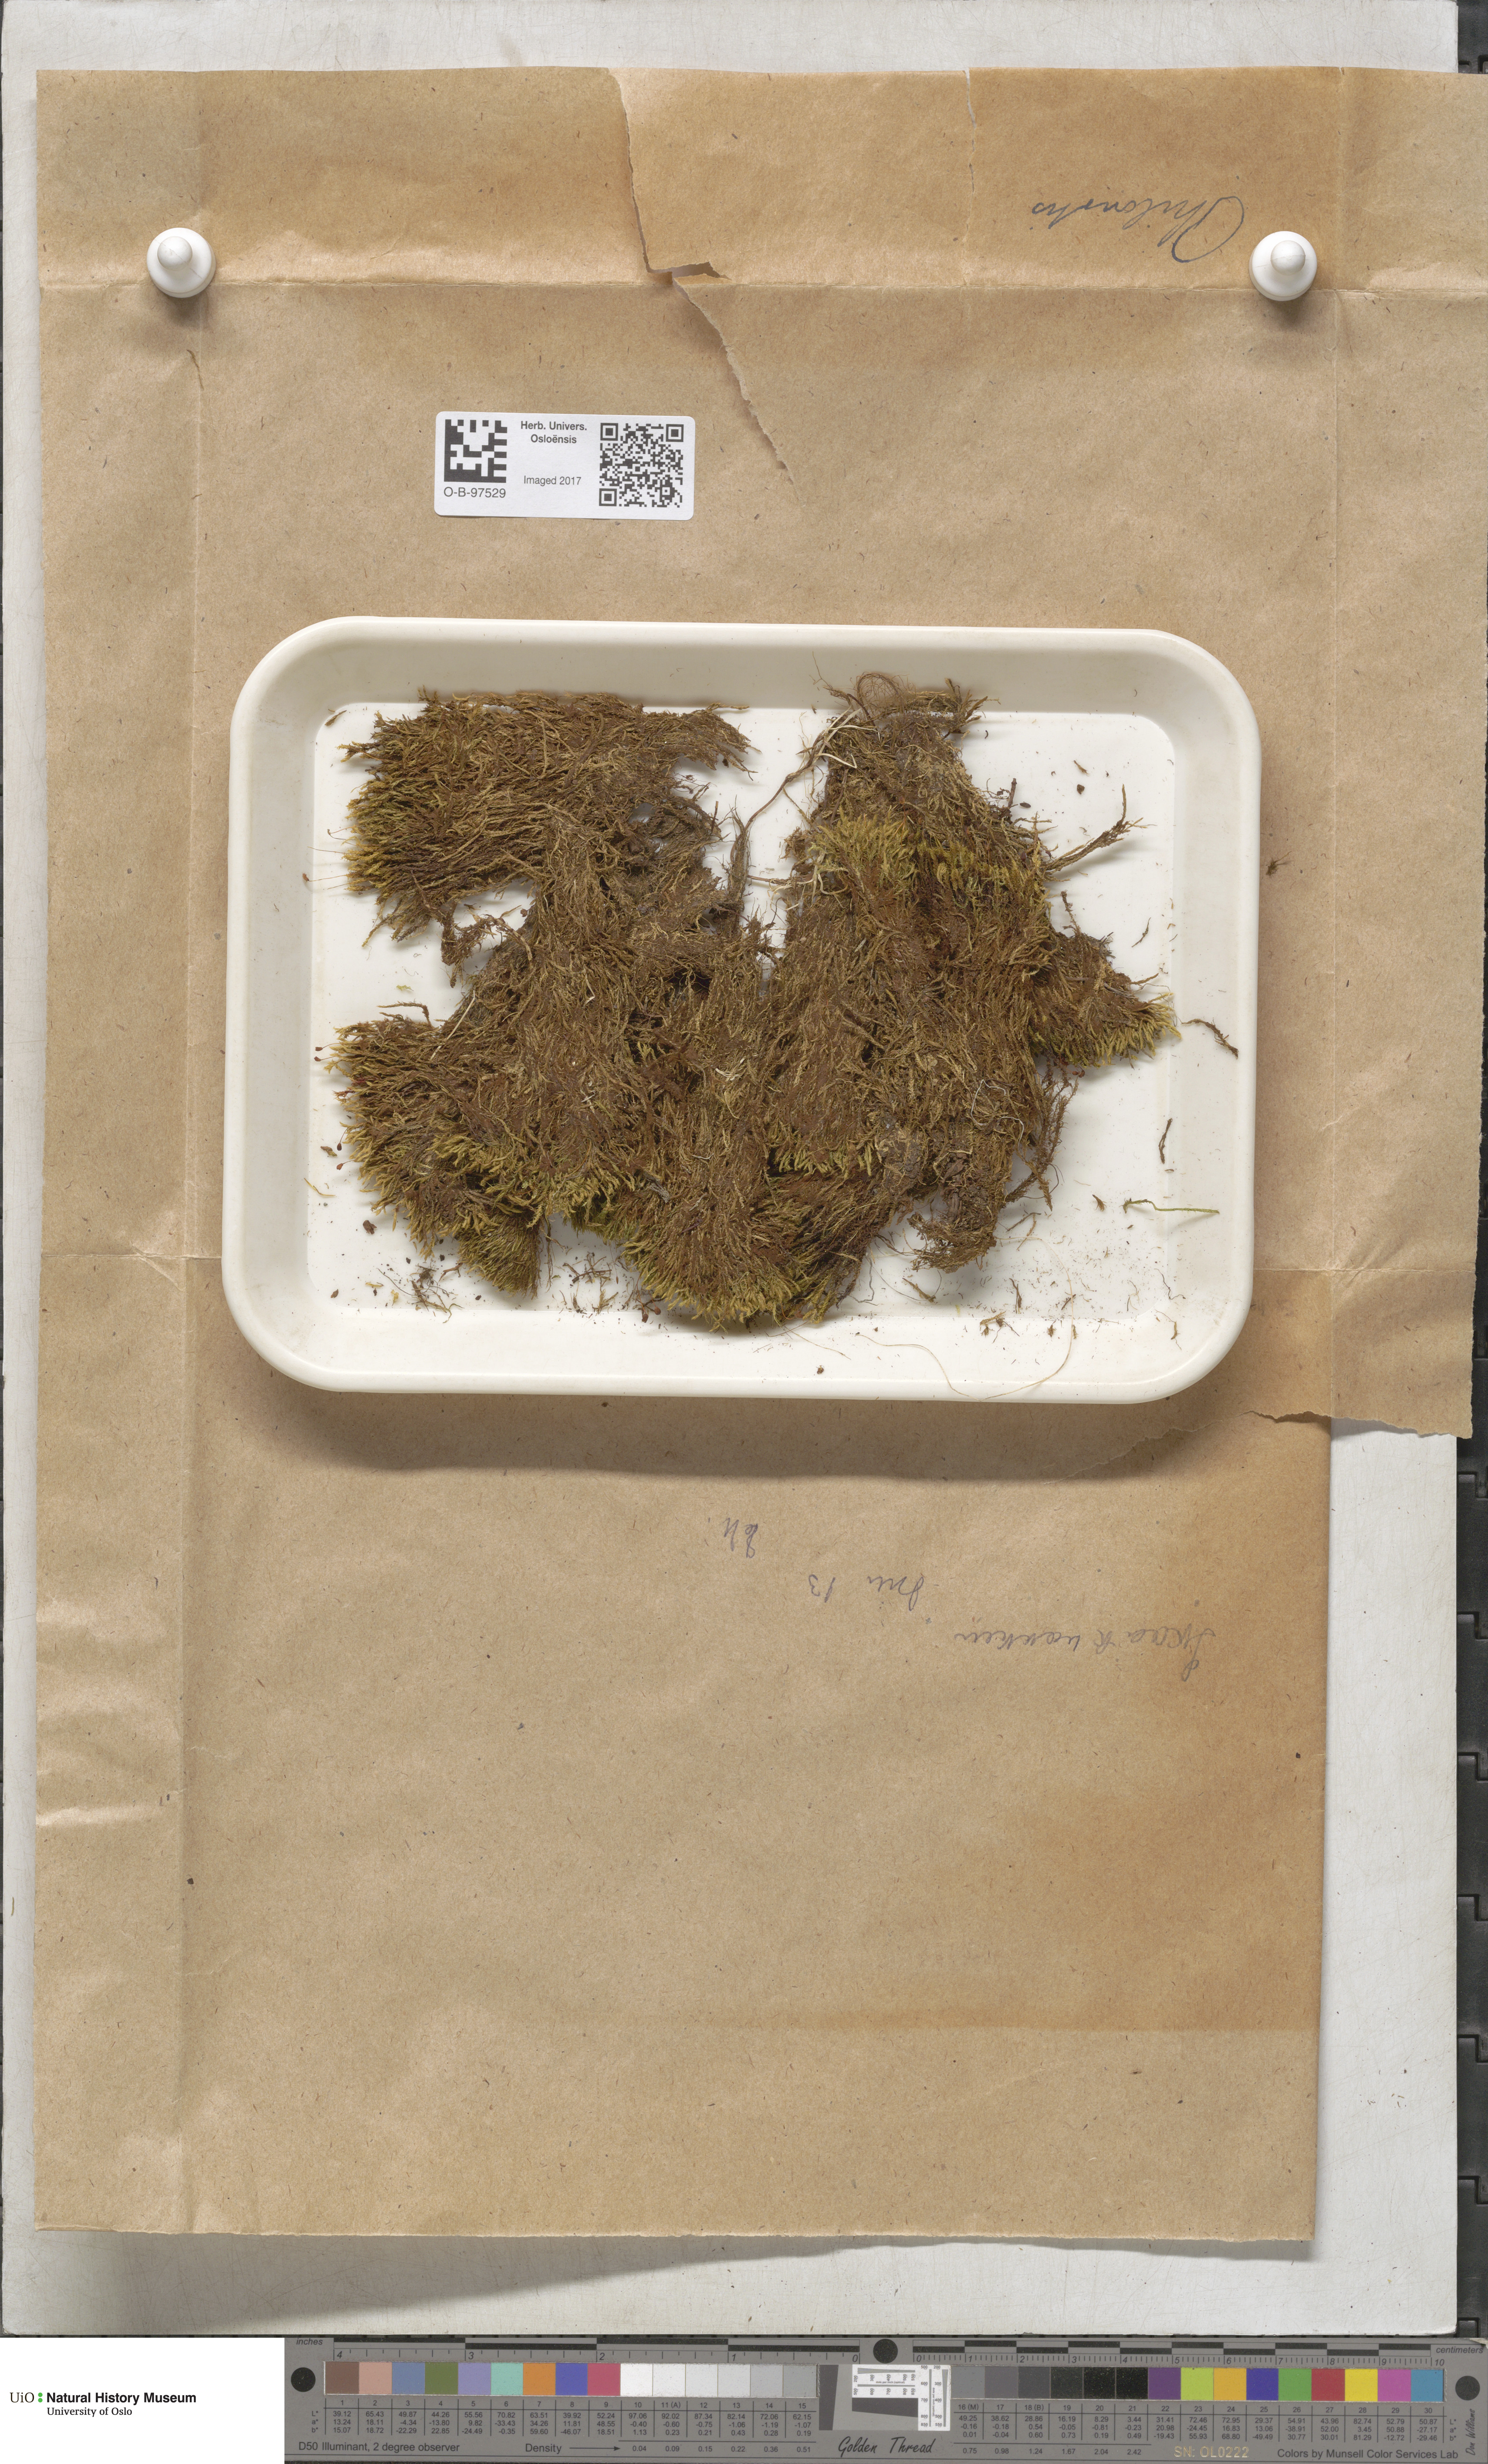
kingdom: Plantae
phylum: Bryophyta
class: Bryopsida
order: Bartramiales
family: Bartramiaceae
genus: Philonotis
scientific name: Philonotis
